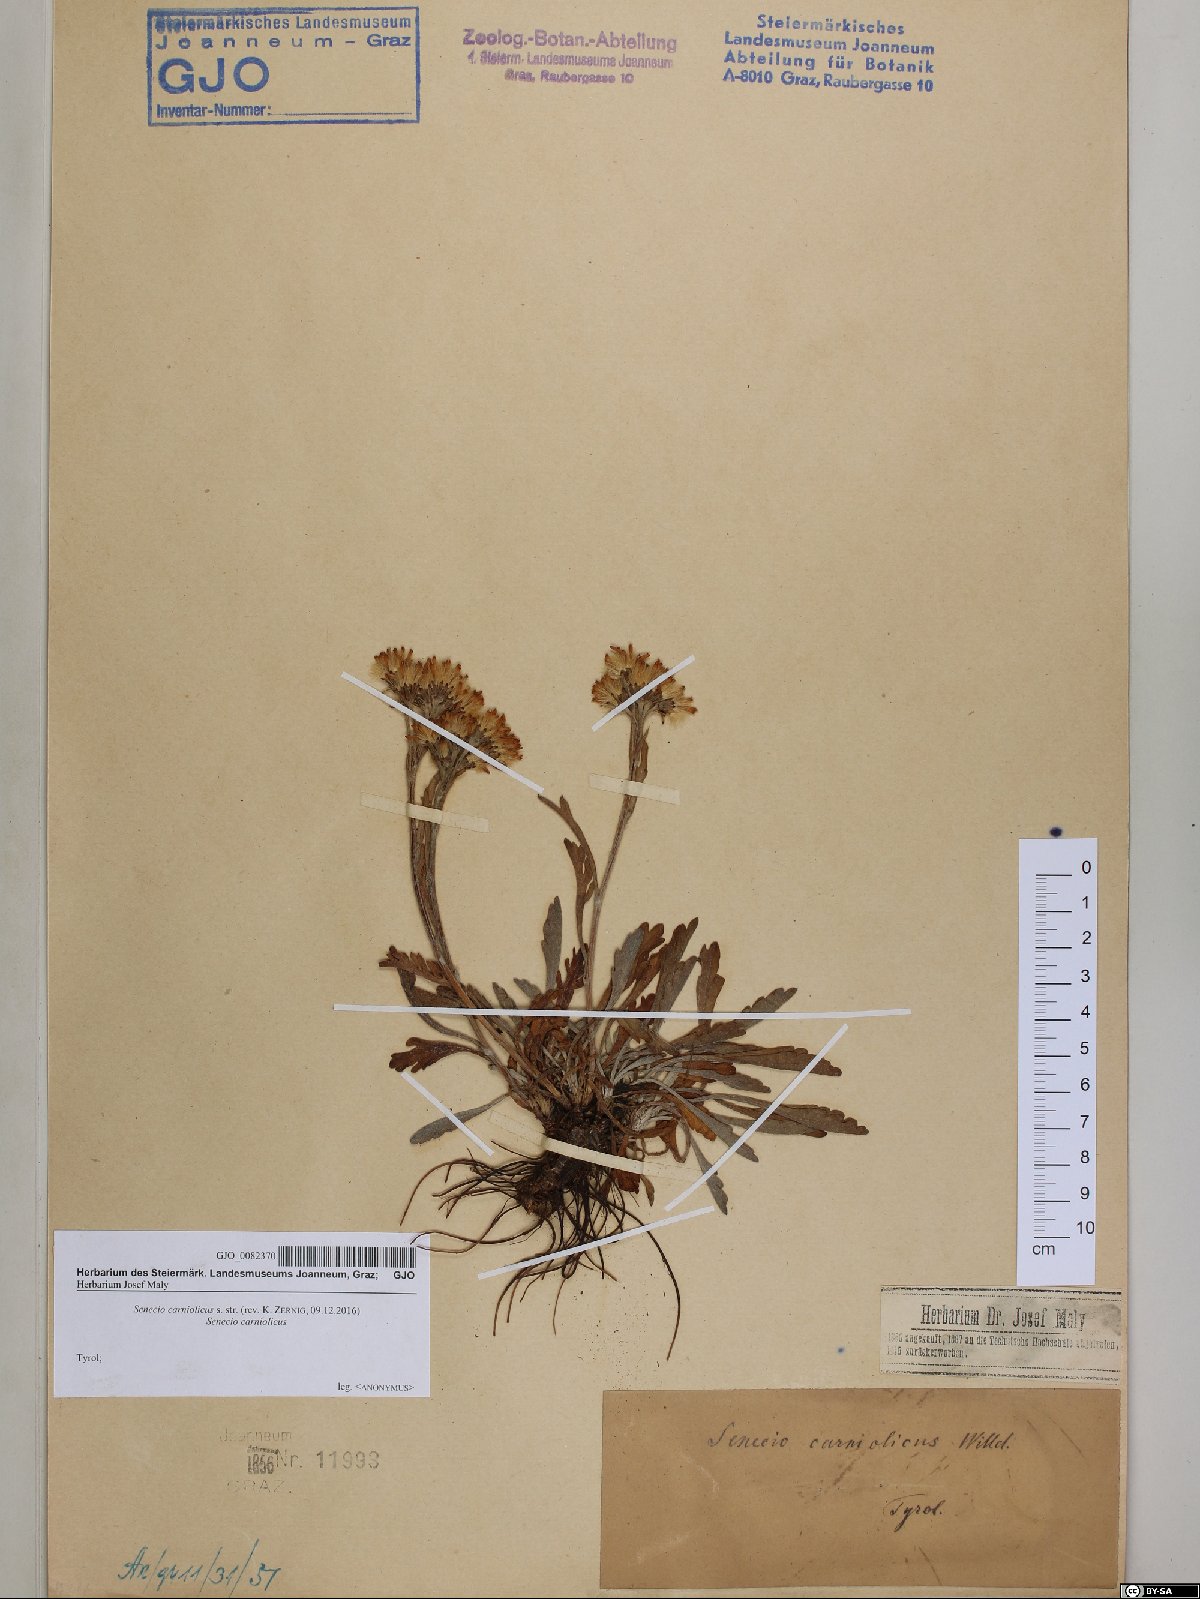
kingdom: Plantae
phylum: Tracheophyta
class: Magnoliopsida
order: Asterales
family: Asteraceae
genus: Jacobaea
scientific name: Jacobaea carniolica
